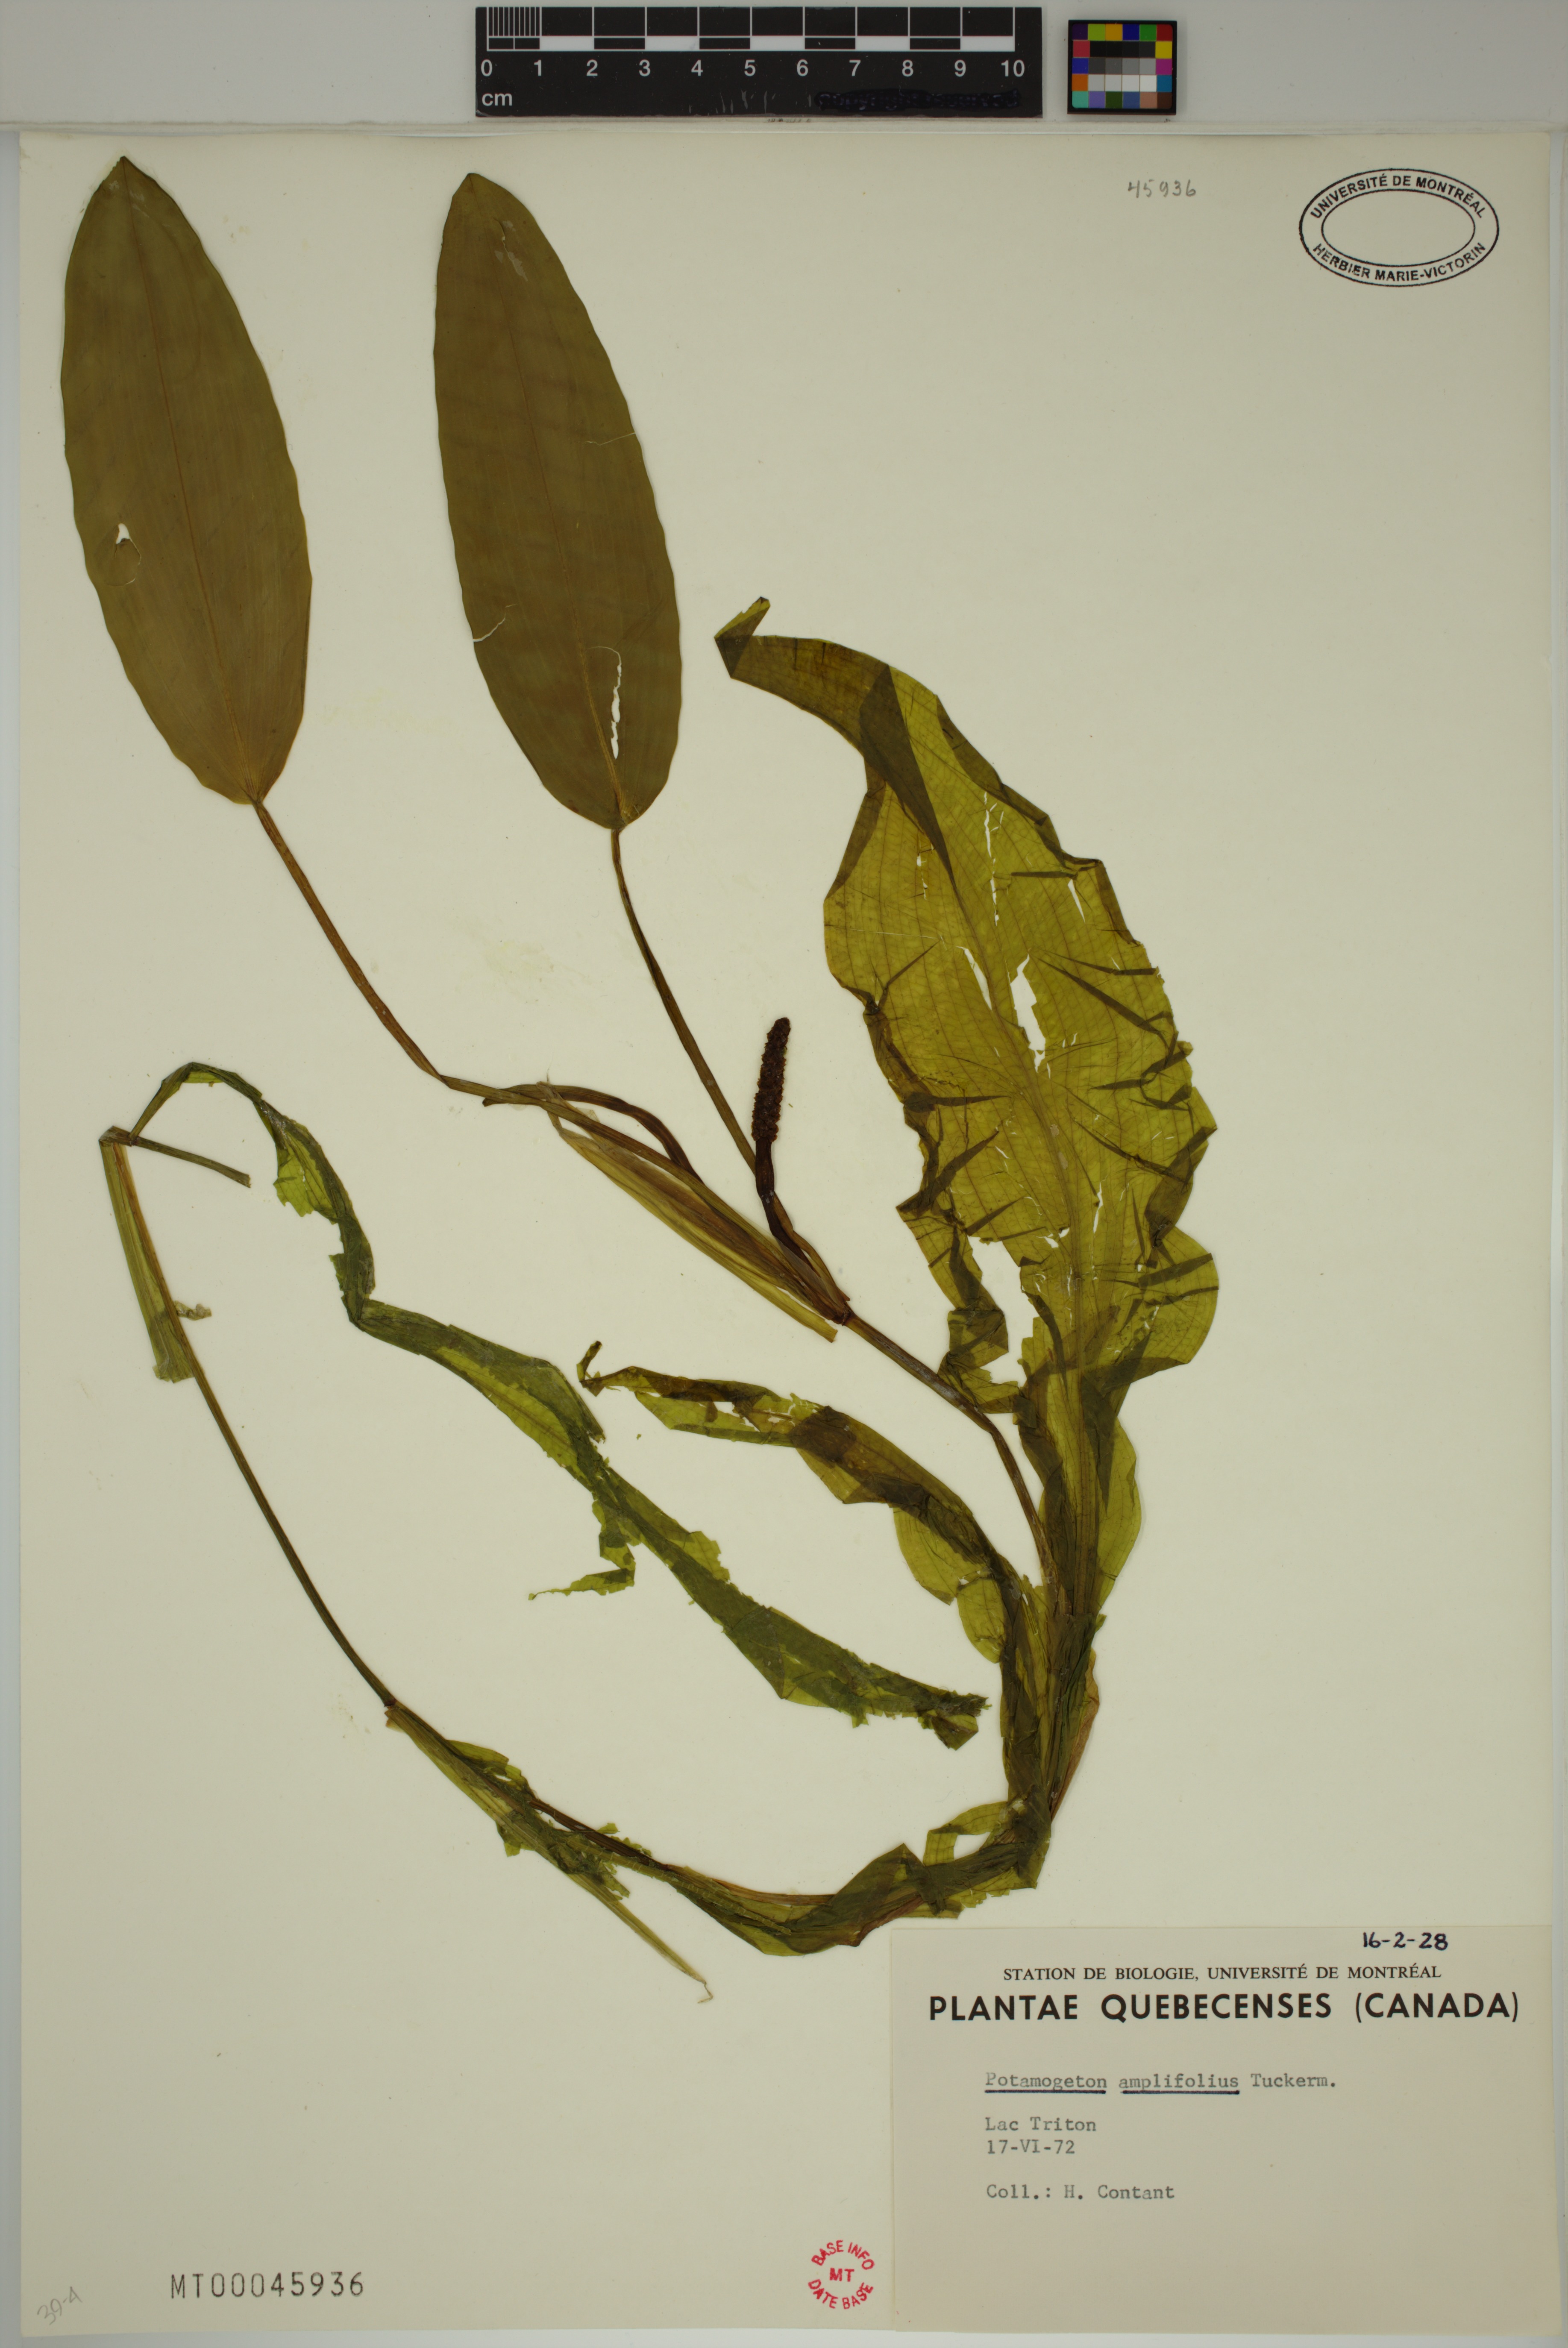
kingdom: Plantae
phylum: Tracheophyta
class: Liliopsida
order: Alismatales
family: Potamogetonaceae
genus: Potamogeton
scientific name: Potamogeton amplifolius
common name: Broad-leaved pondweed
